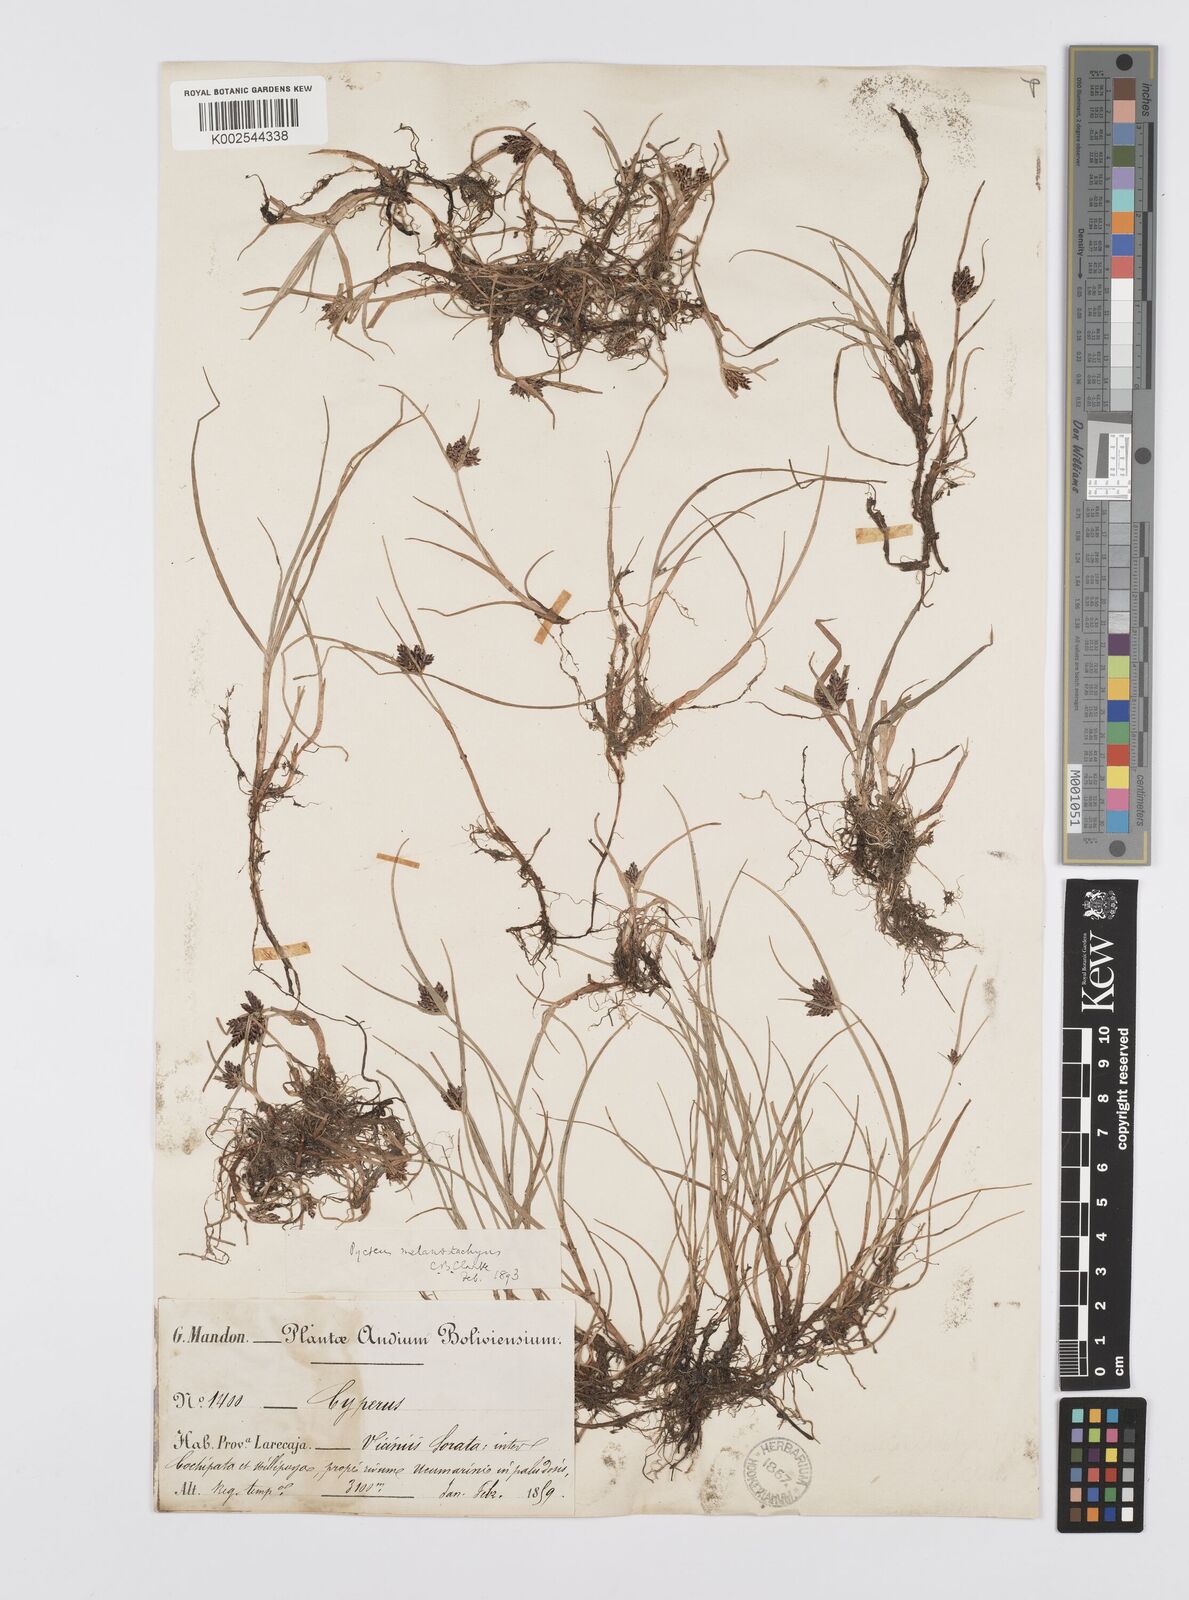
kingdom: Plantae
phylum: Tracheophyta
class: Liliopsida
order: Poales
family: Cyperaceae
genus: Cyperus
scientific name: Cyperus melanostachyus
